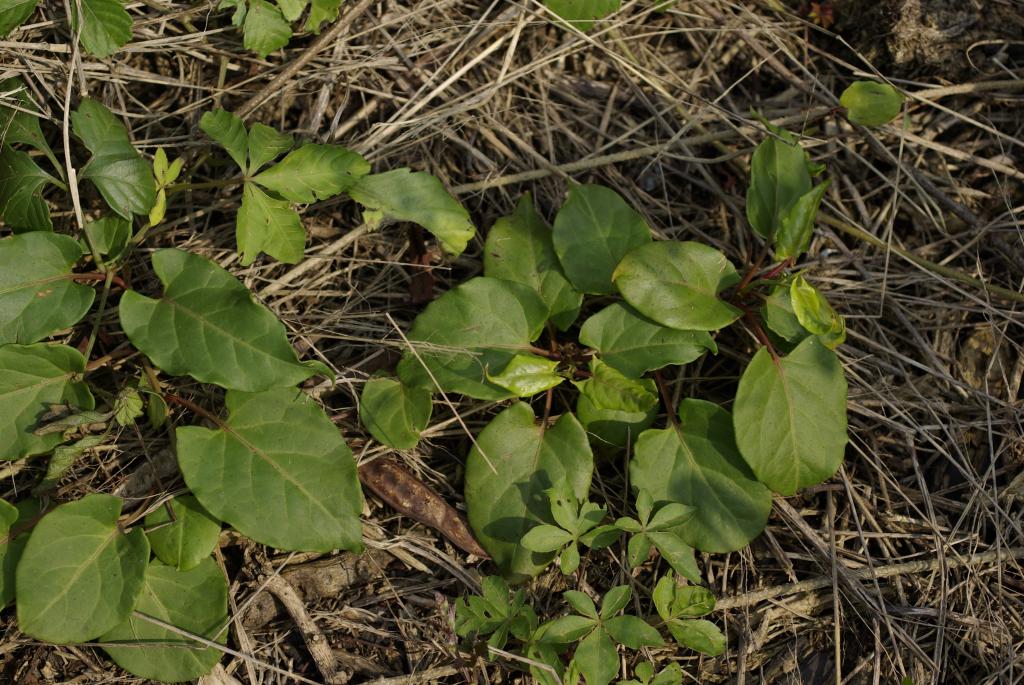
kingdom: Plantae
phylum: Tracheophyta
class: Magnoliopsida
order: Caryophyllales
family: Polygonaceae
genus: Reynoutria
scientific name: Reynoutria multiflora
